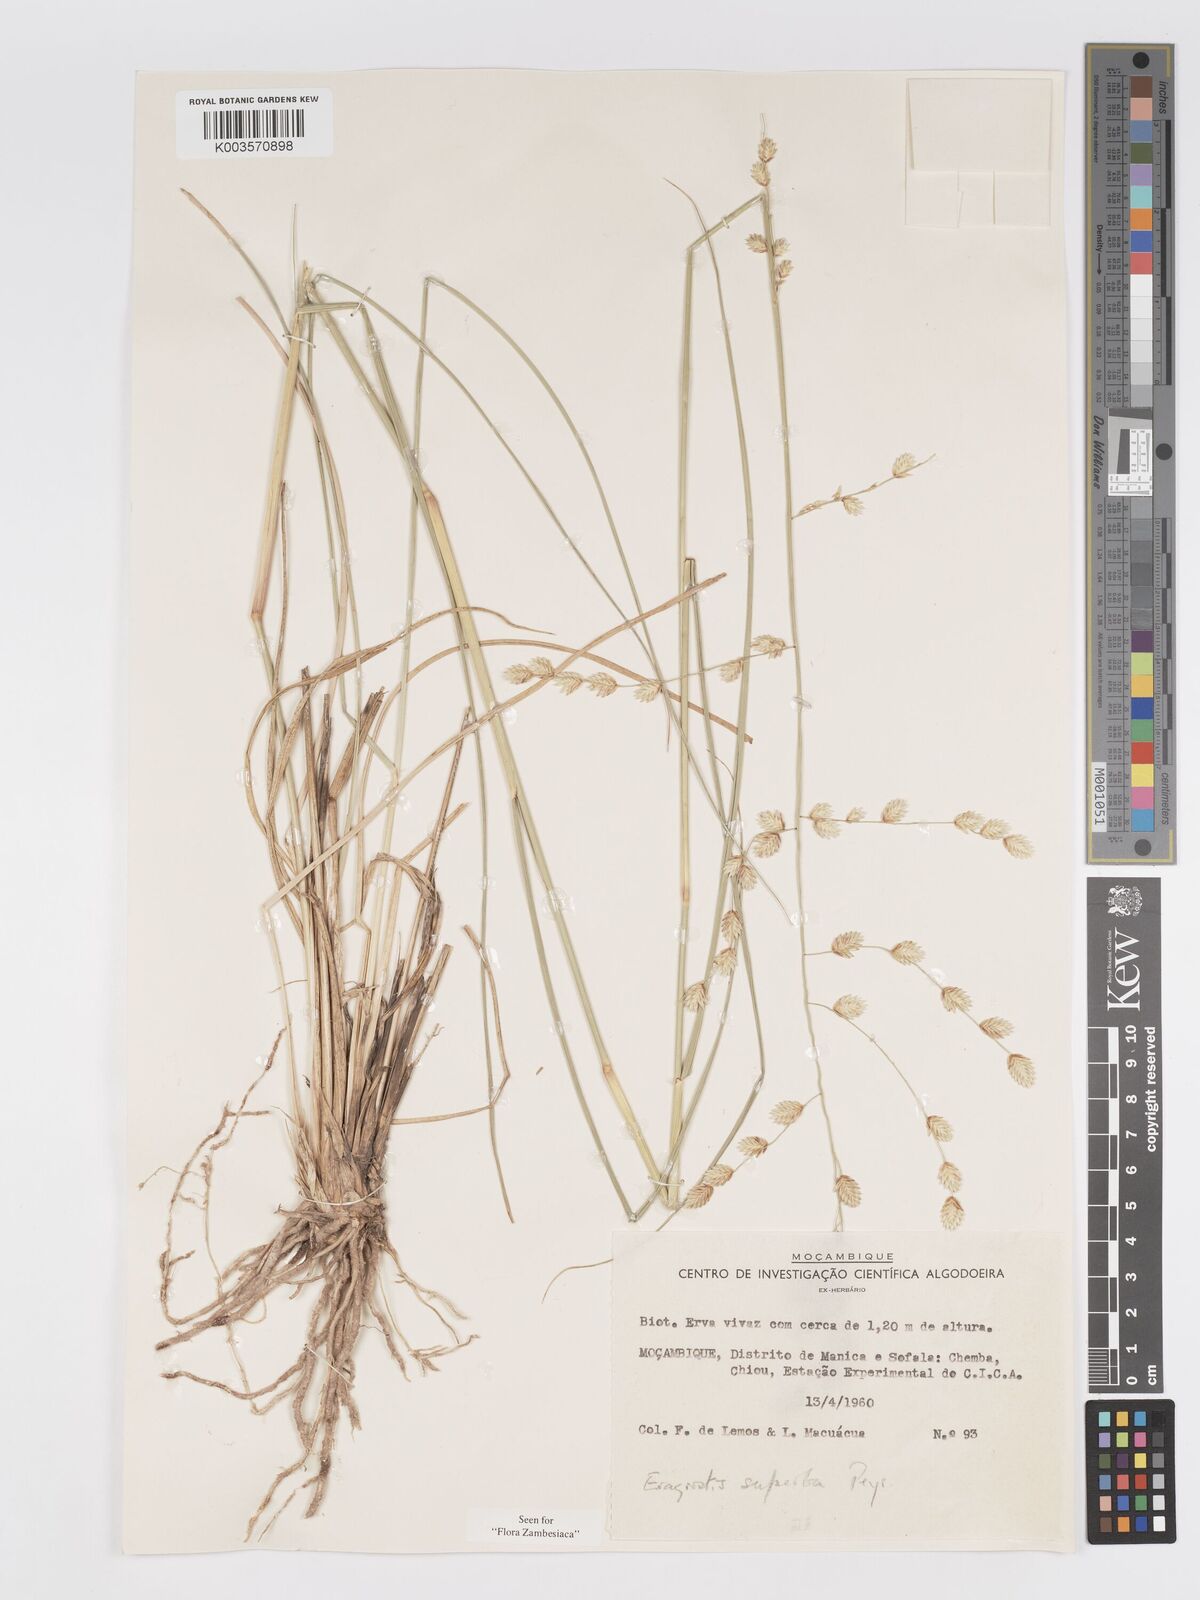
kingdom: Plantae
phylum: Tracheophyta
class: Liliopsida
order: Poales
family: Poaceae
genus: Eragrostis
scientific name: Eragrostis superba
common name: Wilman lovegrass
